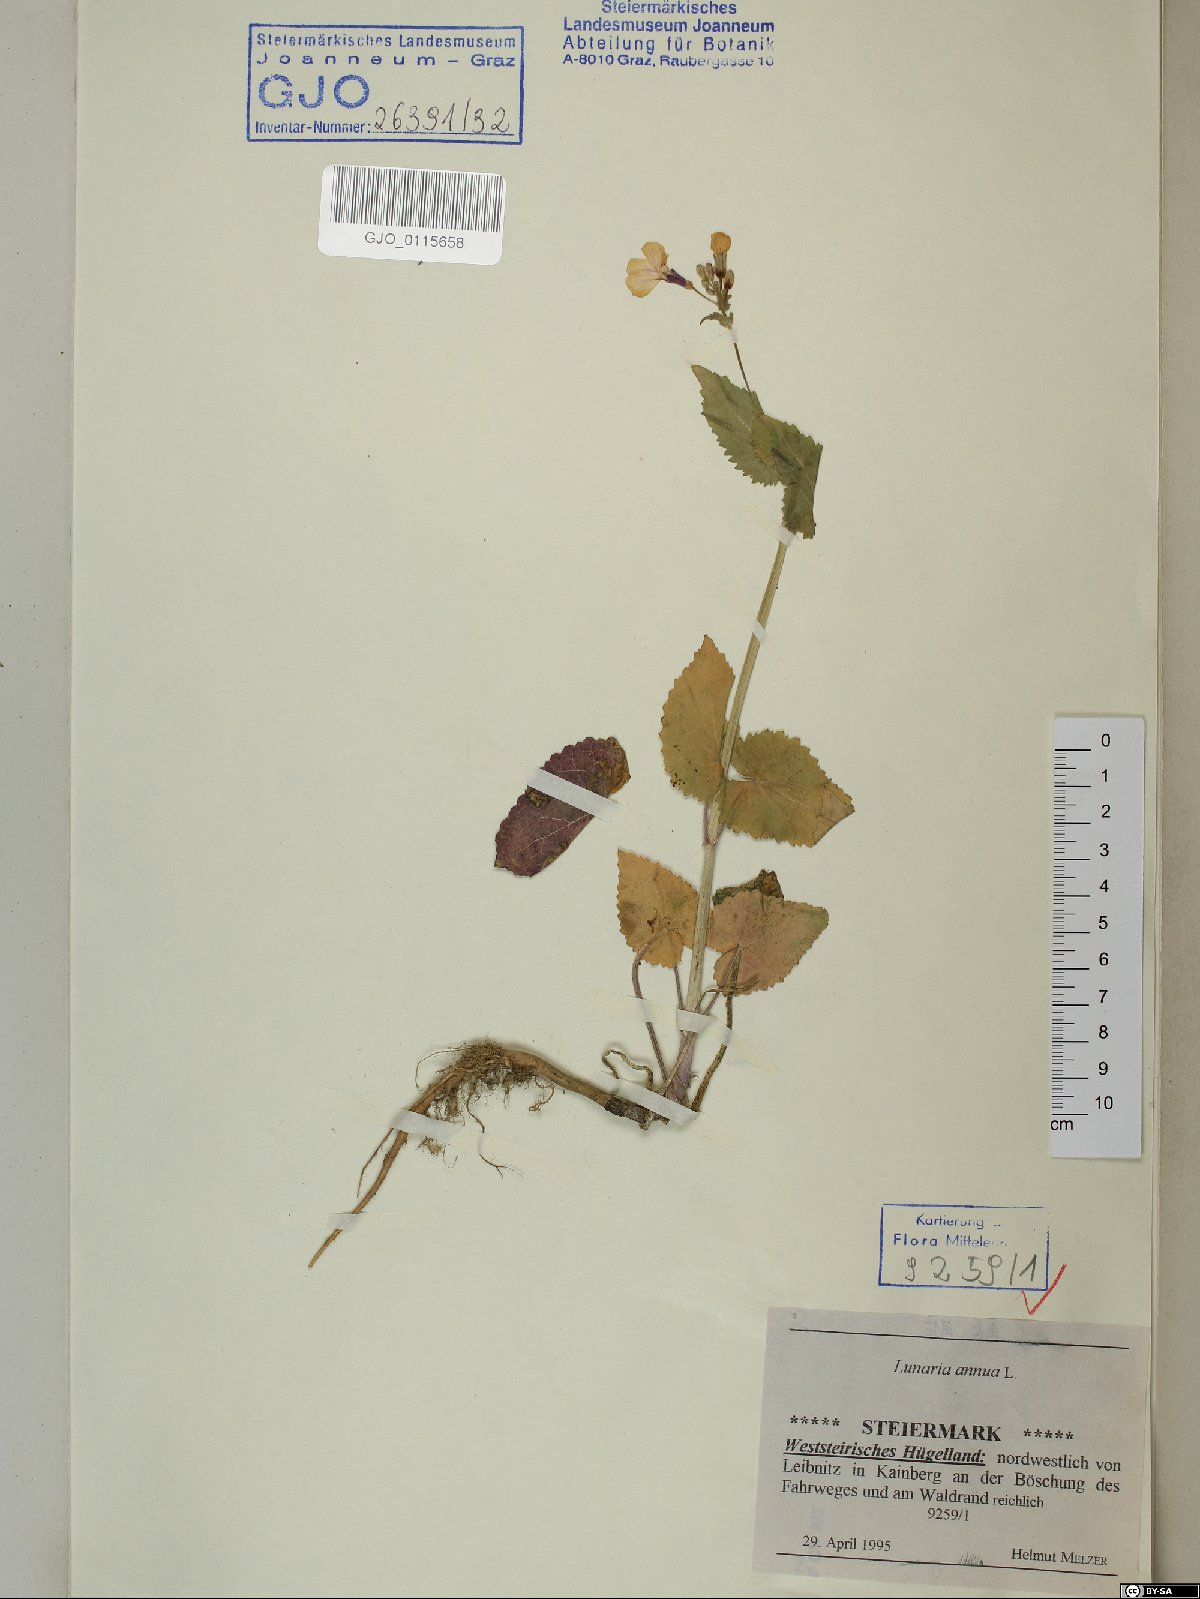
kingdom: Plantae
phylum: Tracheophyta
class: Magnoliopsida
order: Brassicales
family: Brassicaceae
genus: Lunaria
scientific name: Lunaria annua
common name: Honesty
